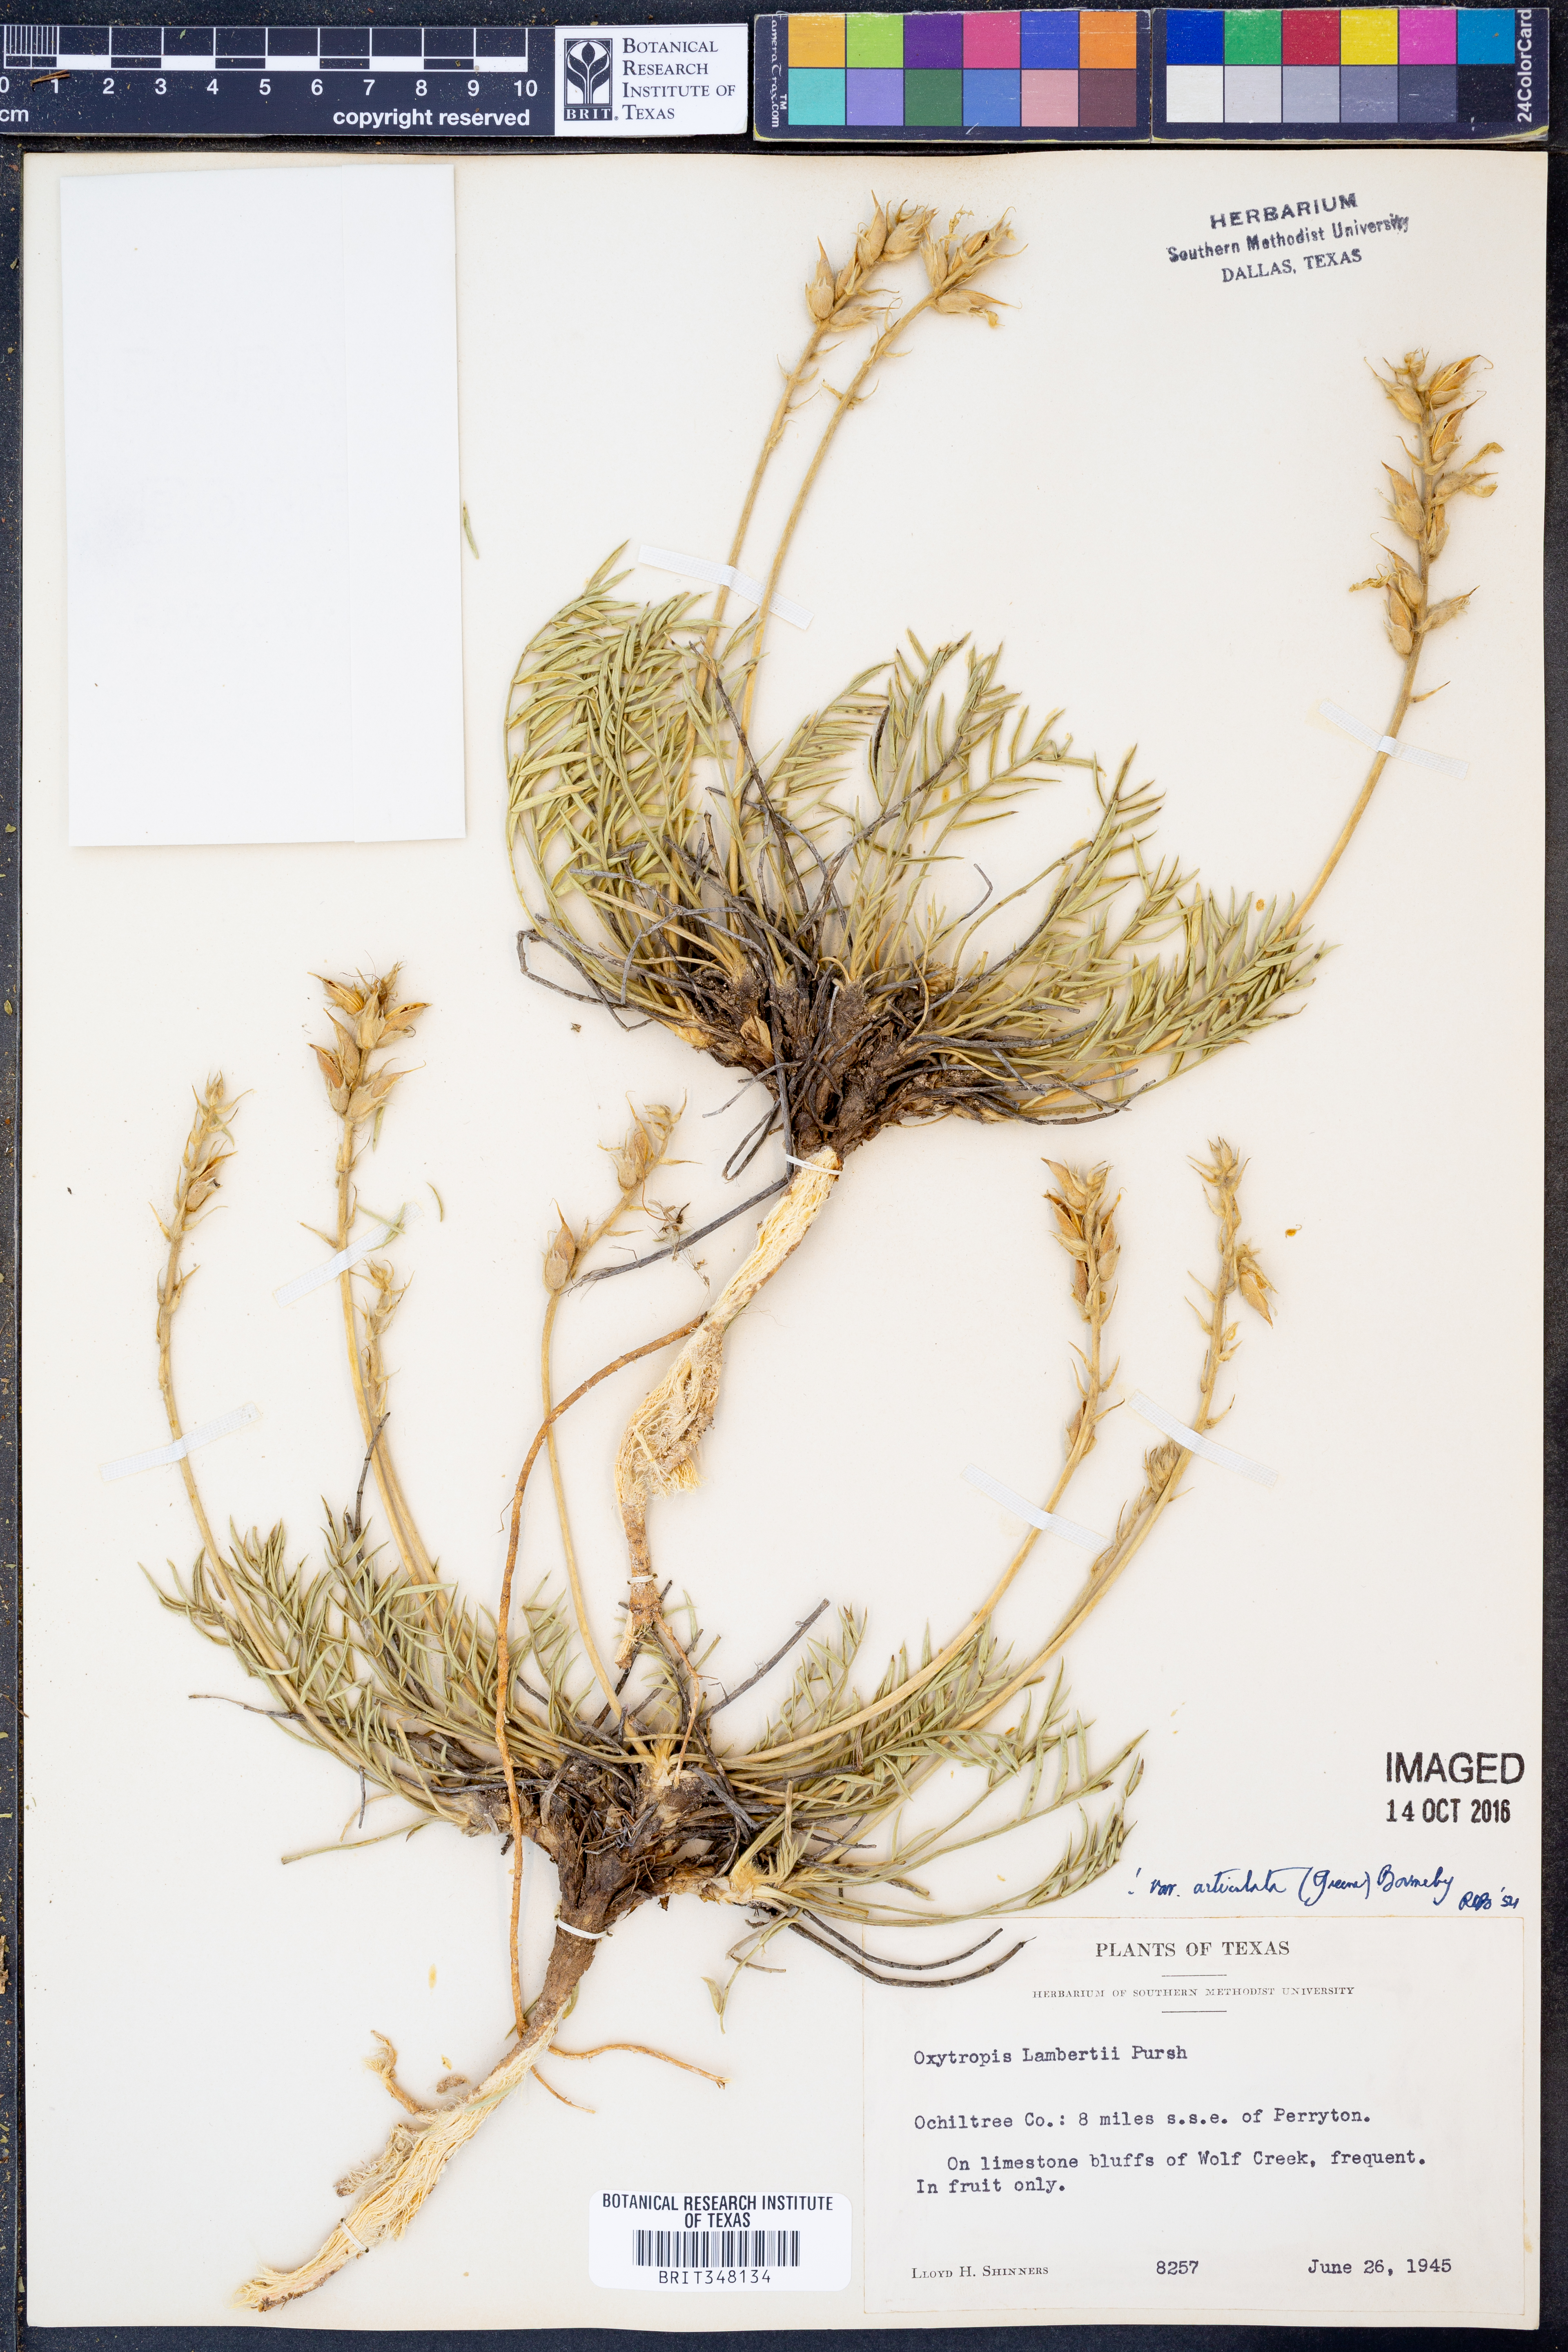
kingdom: Plantae
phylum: Tracheophyta
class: Magnoliopsida
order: Fabales
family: Fabaceae
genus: Oxytropis
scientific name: Oxytropis lambertii
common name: Purple locoweed
